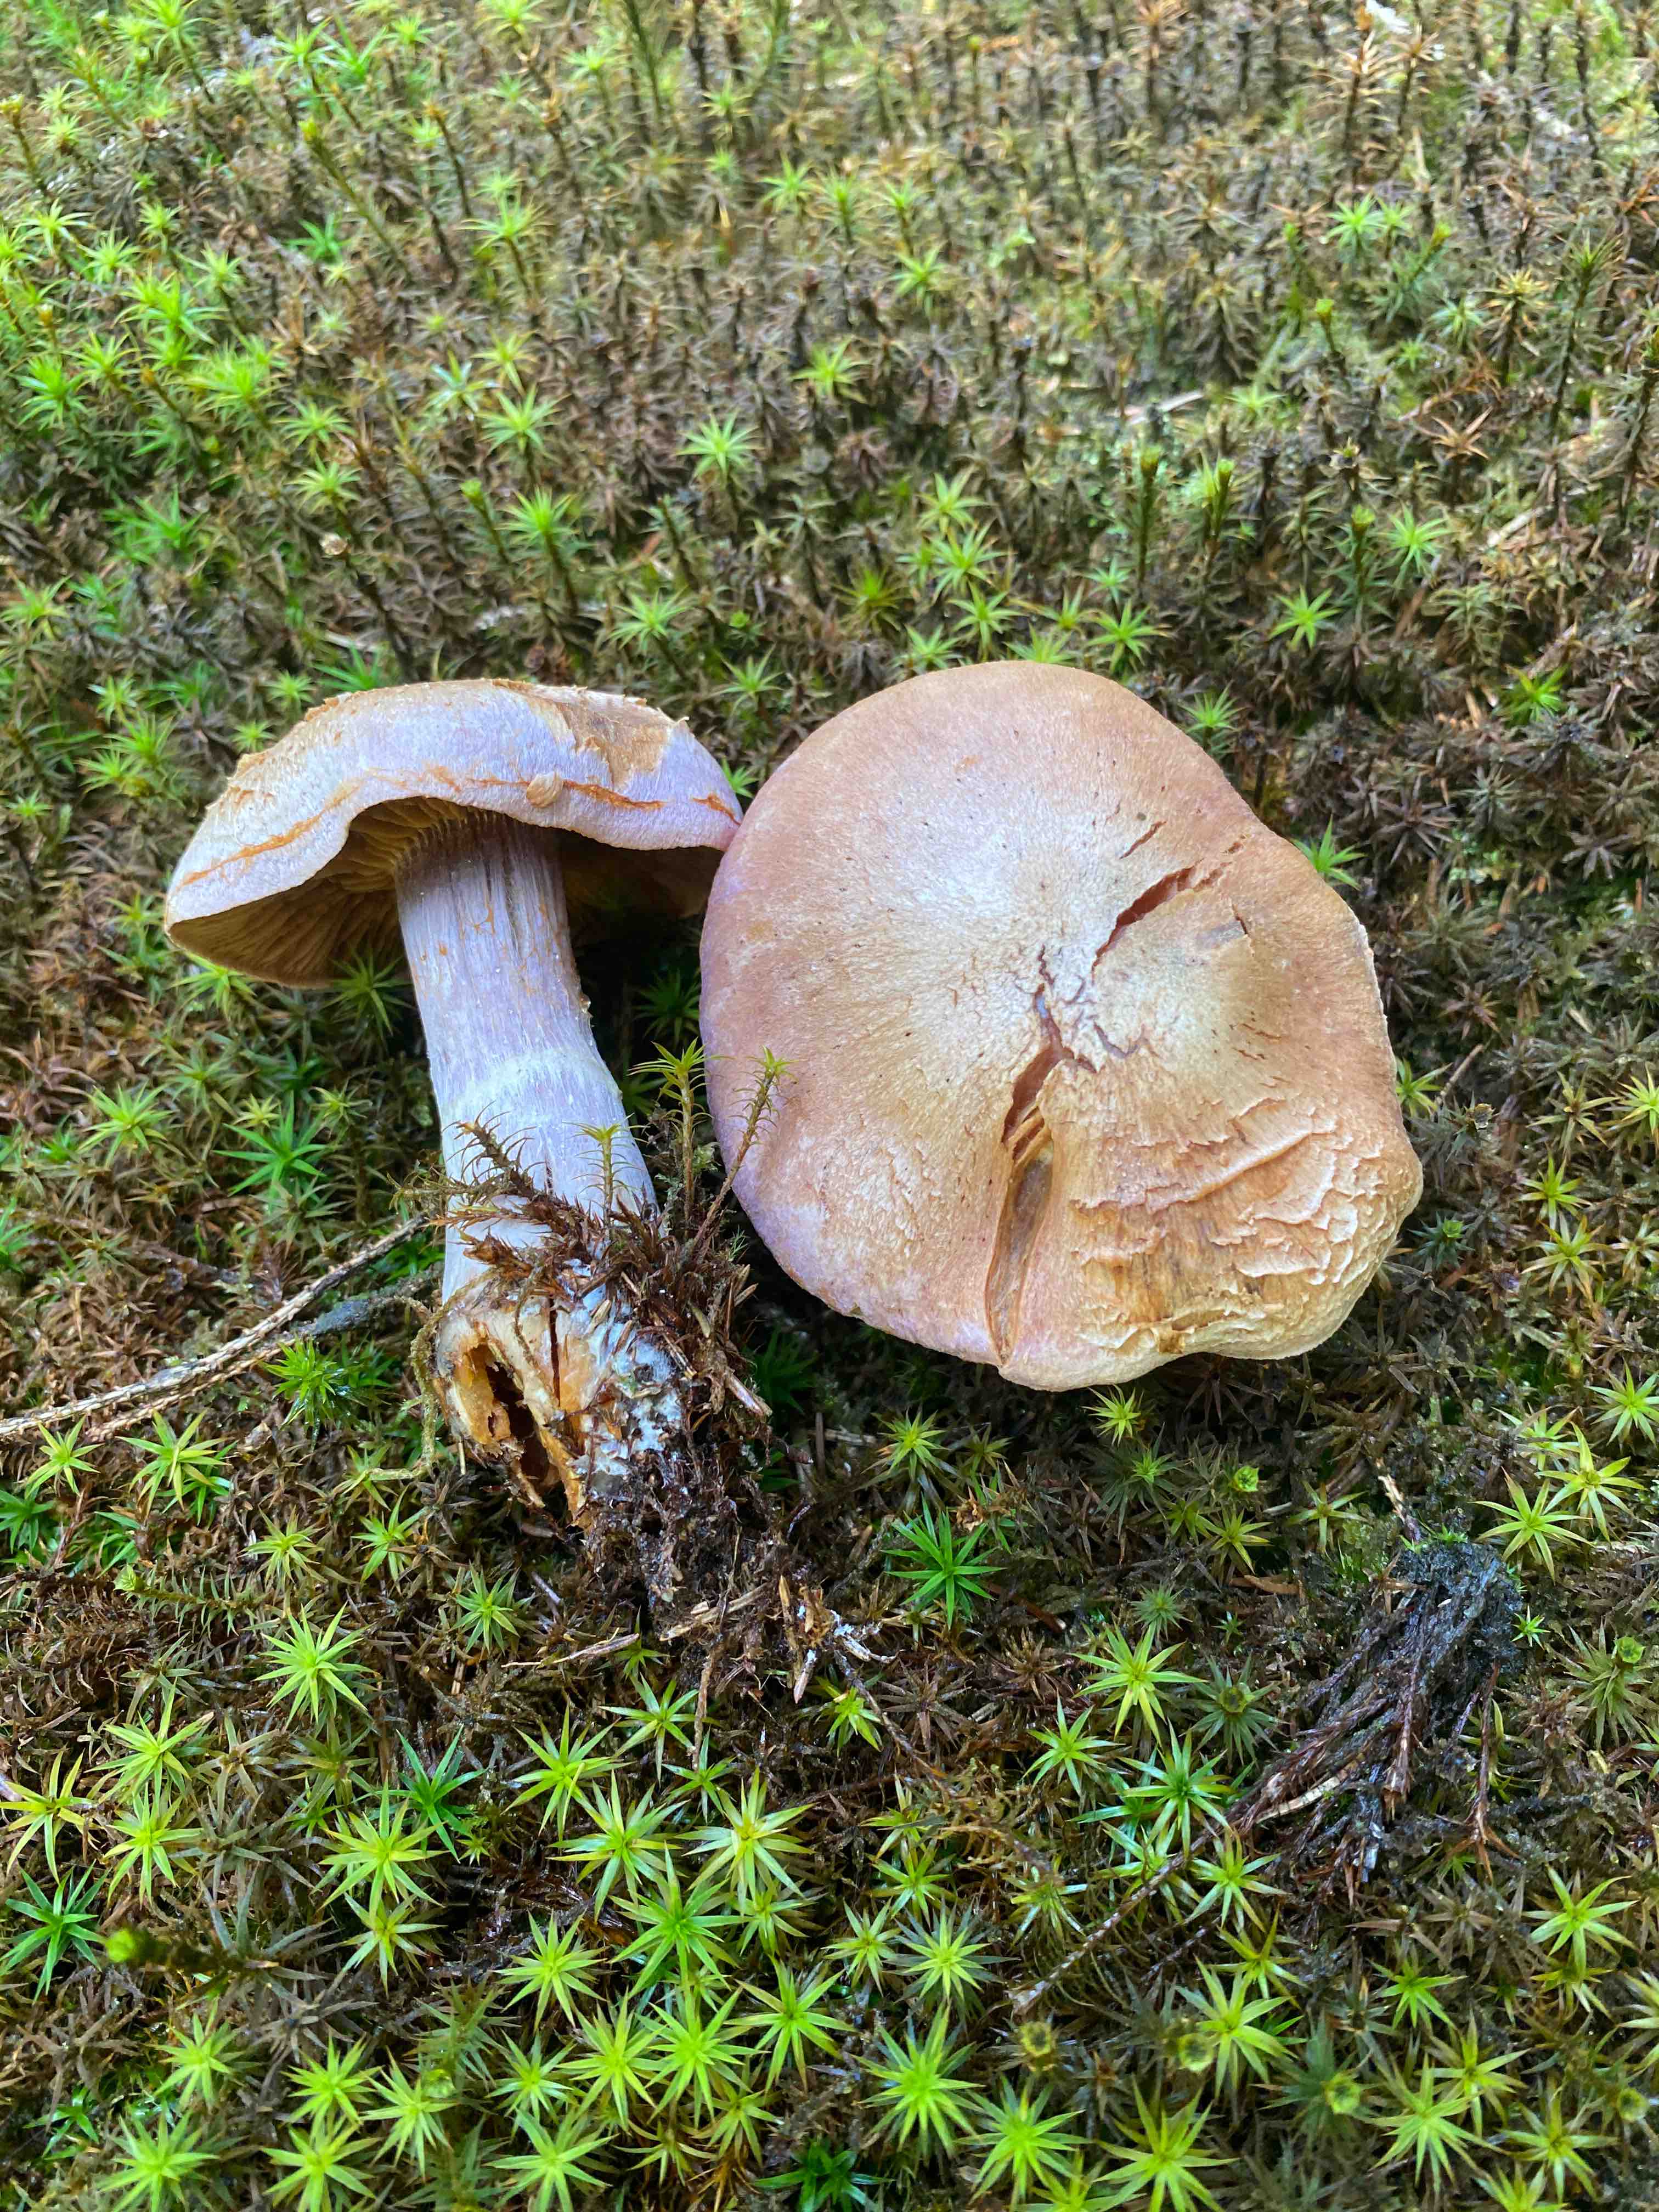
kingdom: Fungi
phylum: Basidiomycota
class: Agaricomycetes
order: Agaricales
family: Cortinariaceae
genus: Cortinarius
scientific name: Cortinarius traganus
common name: safrankødet slørhat
